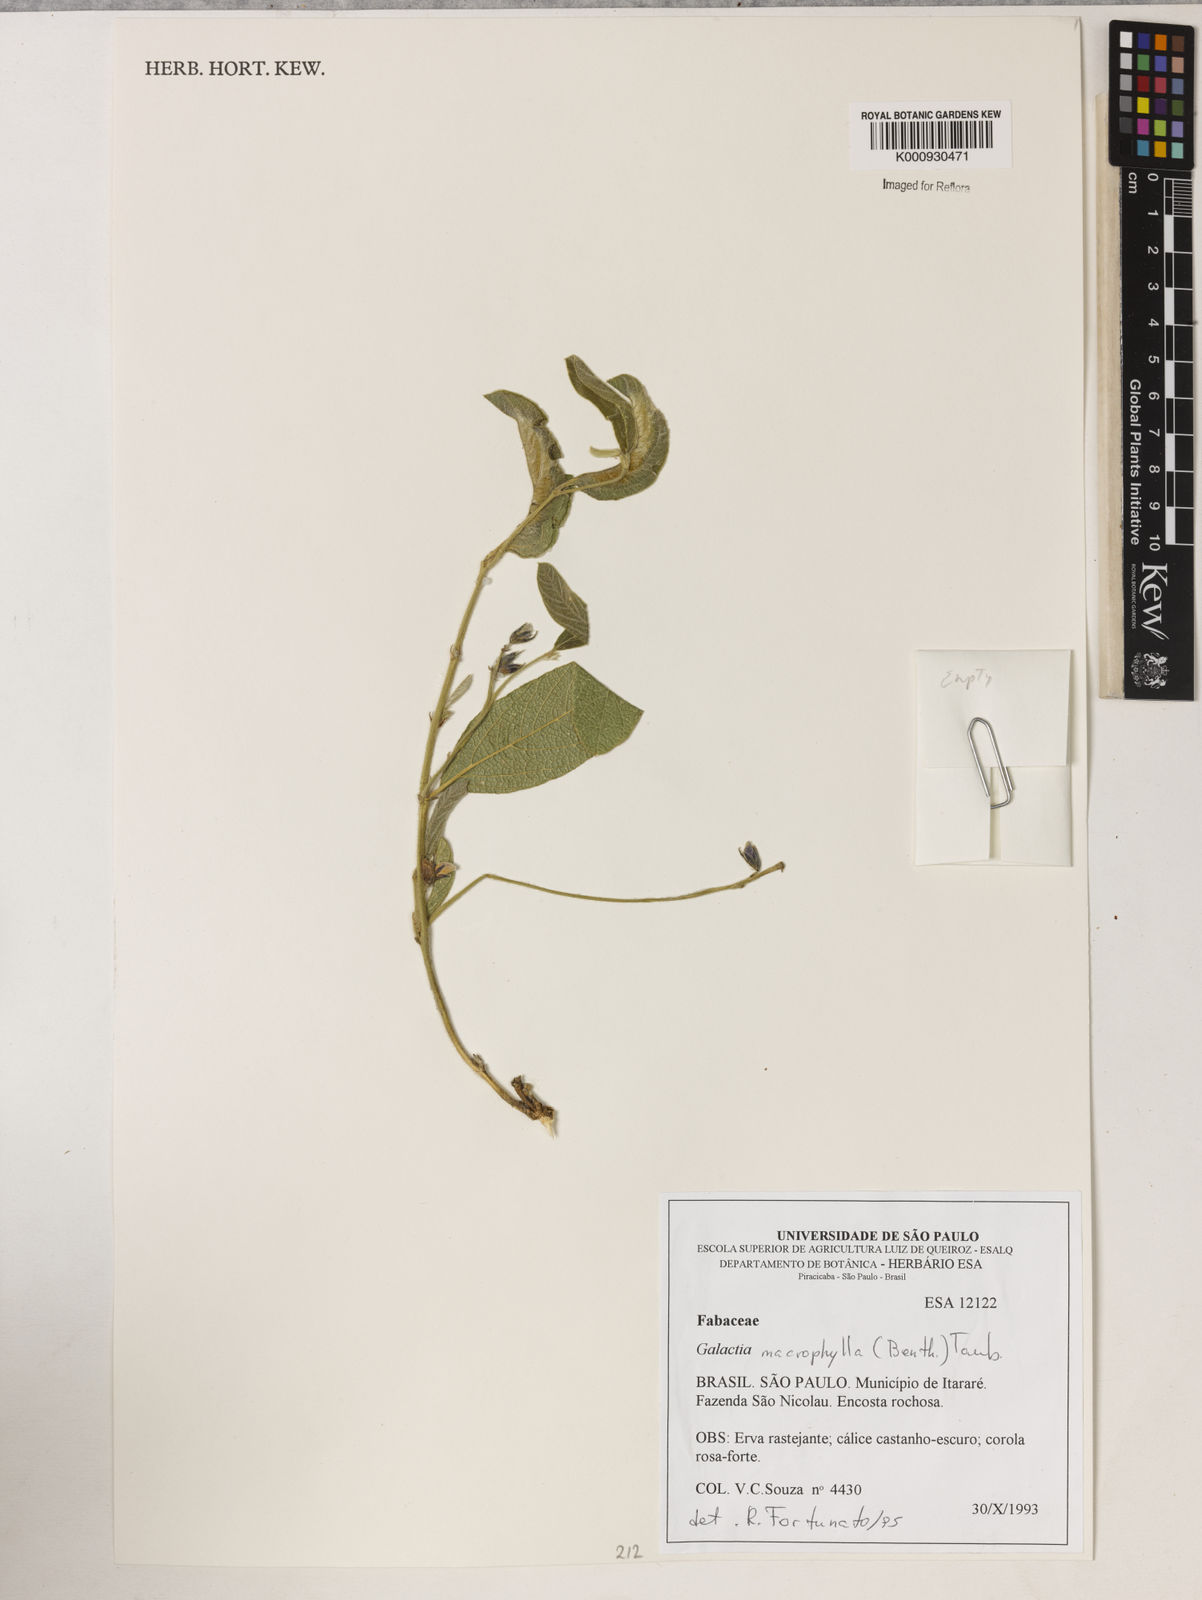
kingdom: Plantae
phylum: Tracheophyta
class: Magnoliopsida
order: Fabales
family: Fabaceae
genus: Cerradicola
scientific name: Cerradicola boavista
